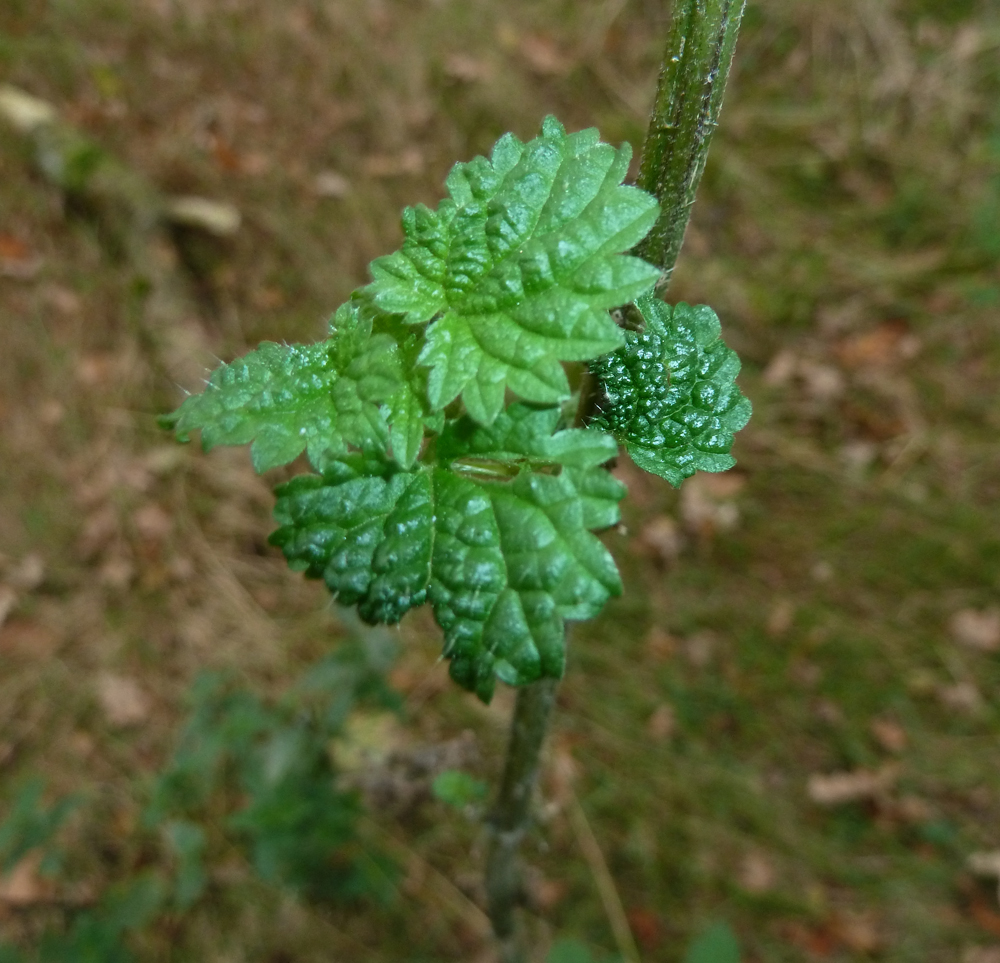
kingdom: Plantae
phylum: Tracheophyta
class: Magnoliopsida
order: Rosales
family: Urticaceae
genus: Urtica
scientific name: Urtica dioica
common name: Common nettle
